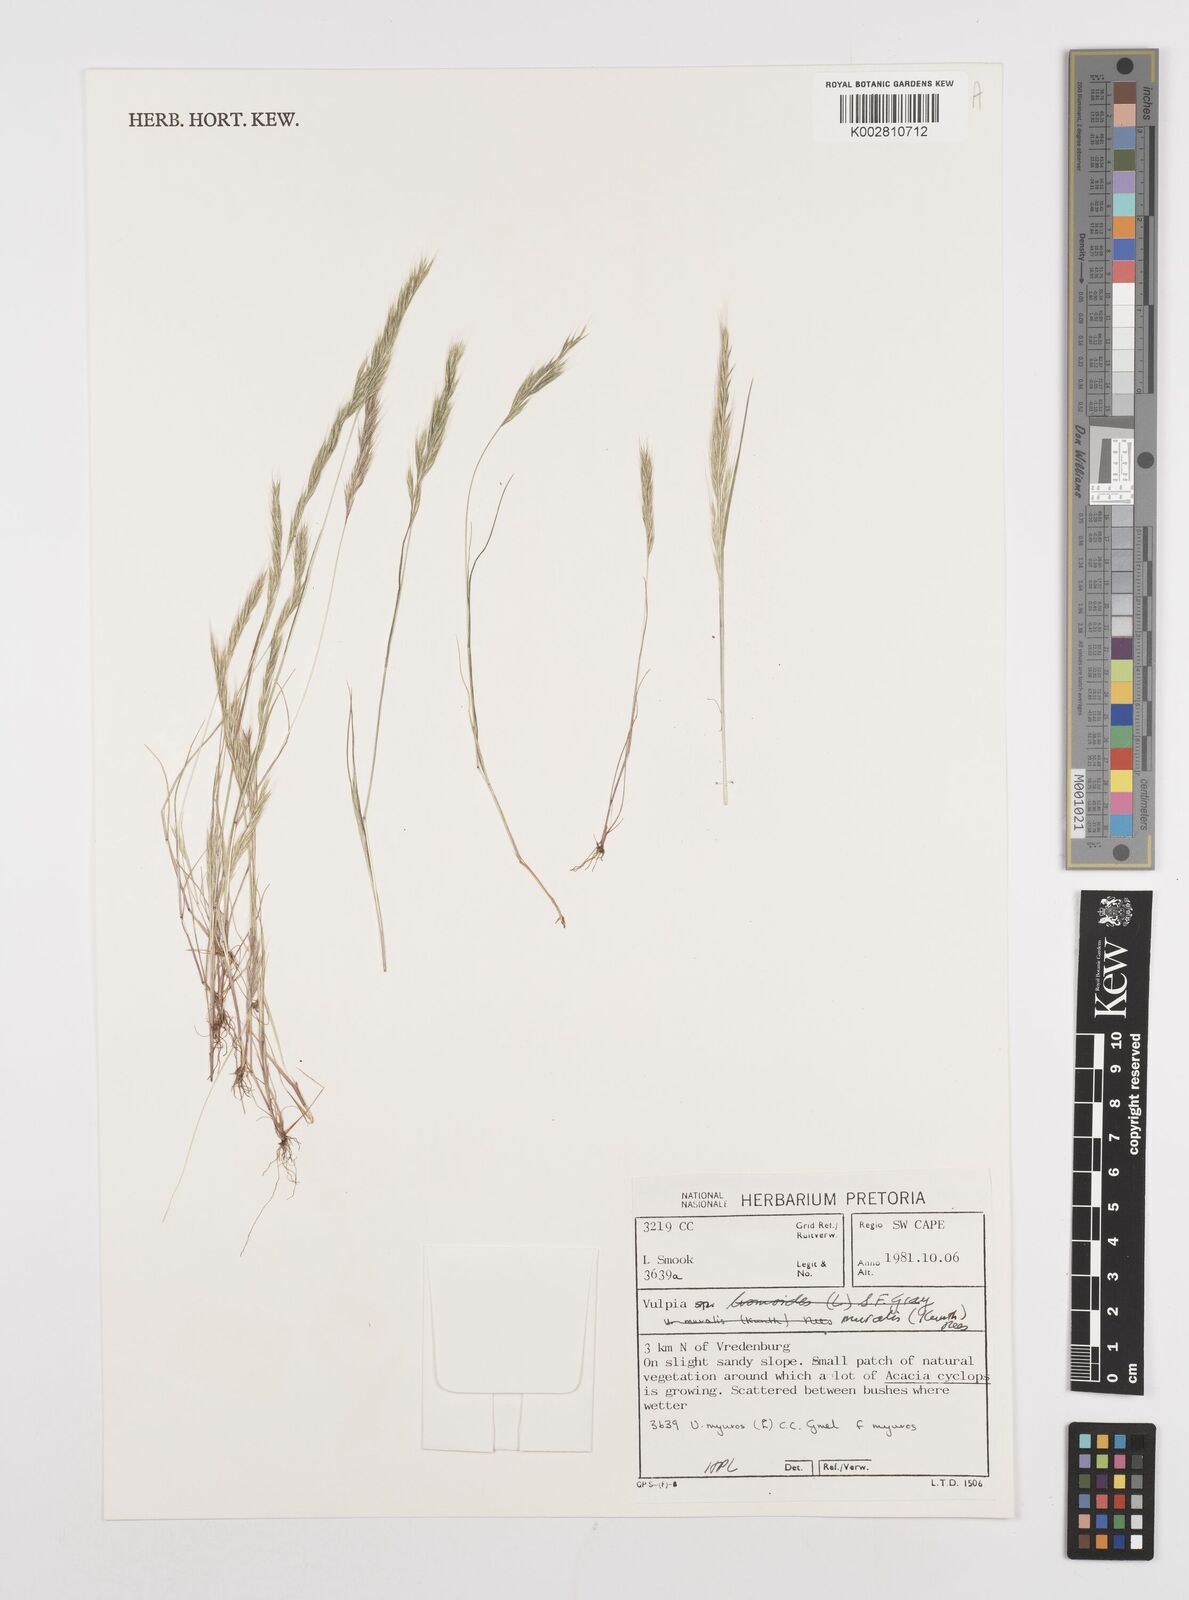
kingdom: Plantae
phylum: Tracheophyta
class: Liliopsida
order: Poales
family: Poaceae
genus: Festuca
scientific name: Festuca muralis
